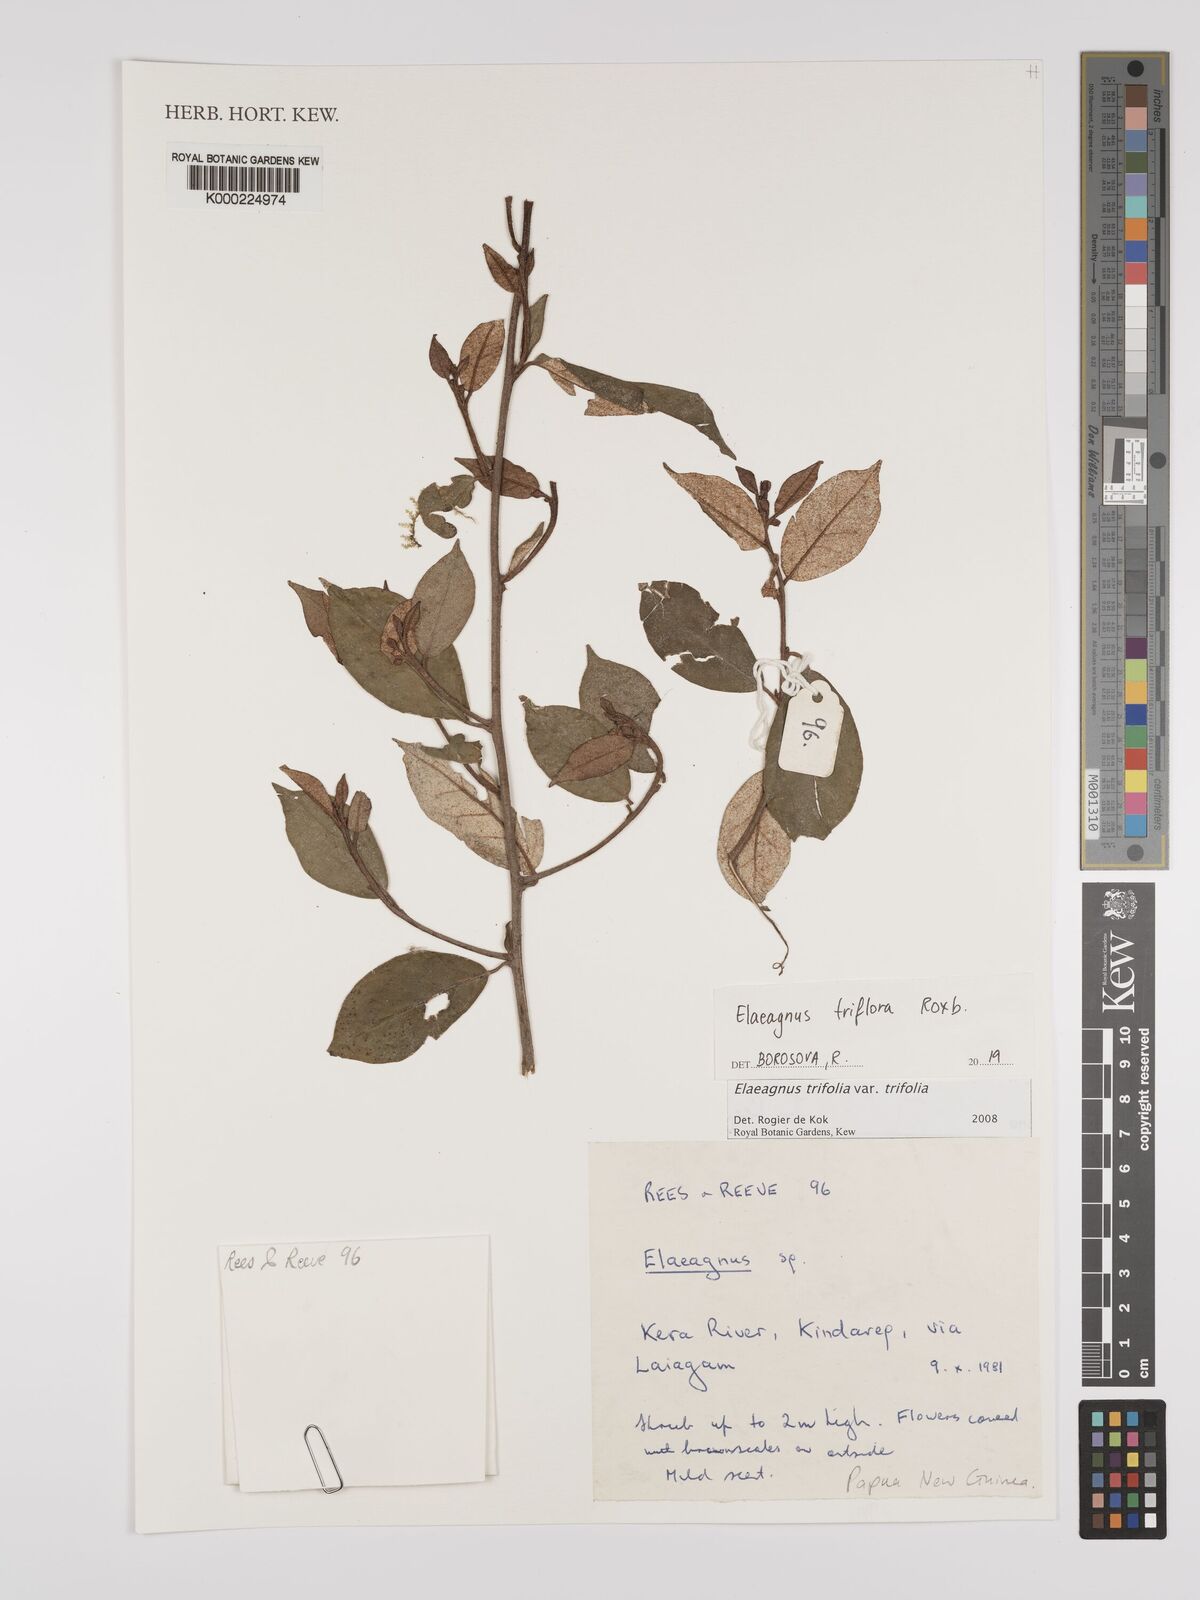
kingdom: Plantae
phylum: Tracheophyta
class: Magnoliopsida
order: Rosales
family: Elaeagnaceae
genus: Elaeagnus
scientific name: Elaeagnus
